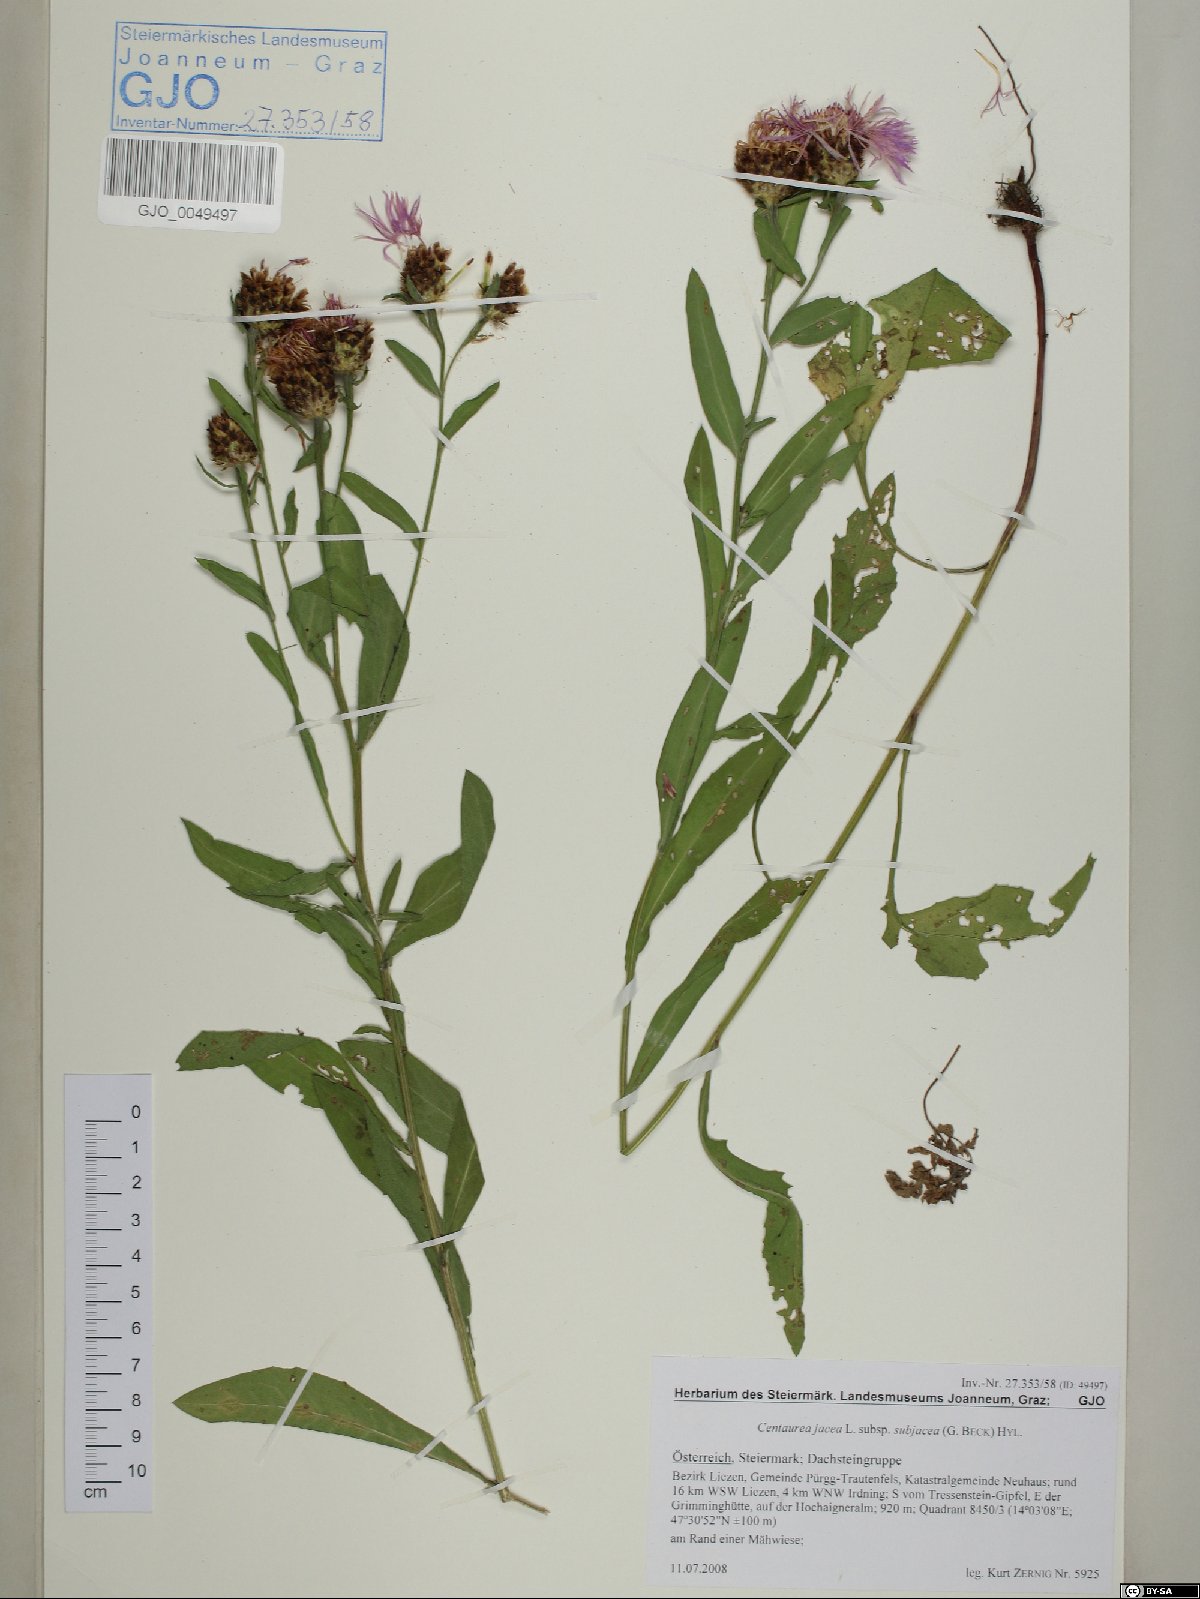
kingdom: Plantae
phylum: Tracheophyta
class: Magnoliopsida
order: Asterales
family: Asteraceae
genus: Centaurea
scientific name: Centaurea preissmannii
